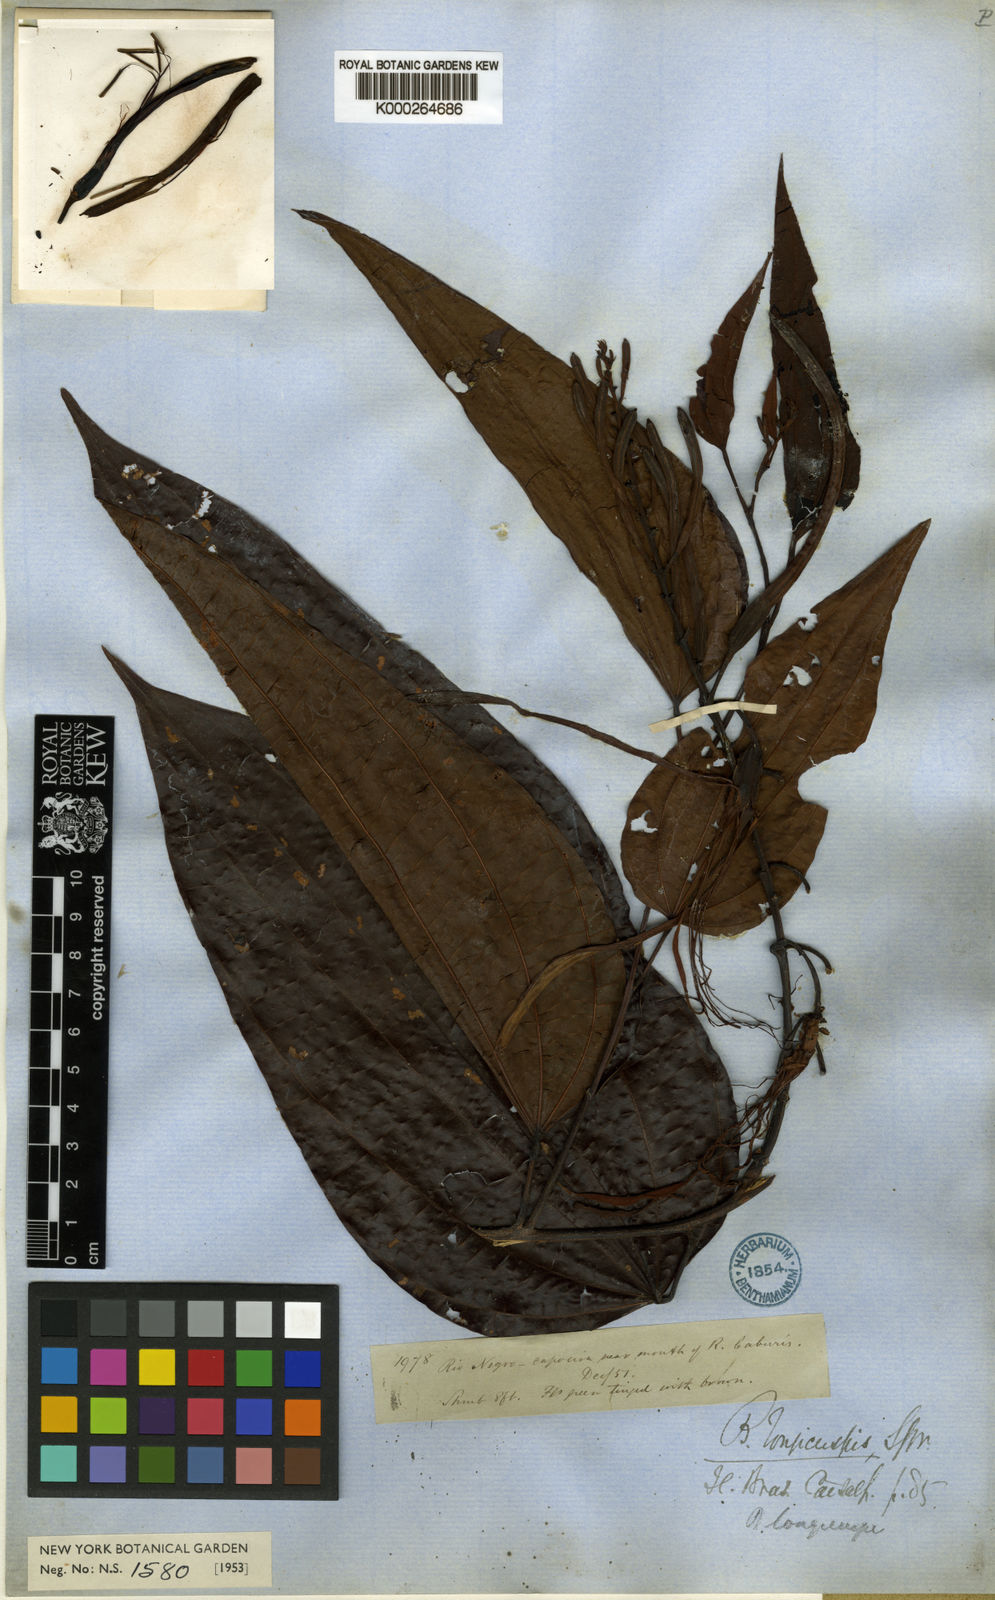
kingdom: Plantae
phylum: Tracheophyta
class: Magnoliopsida
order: Fabales
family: Fabaceae
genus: Bauhinia
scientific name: Bauhinia
